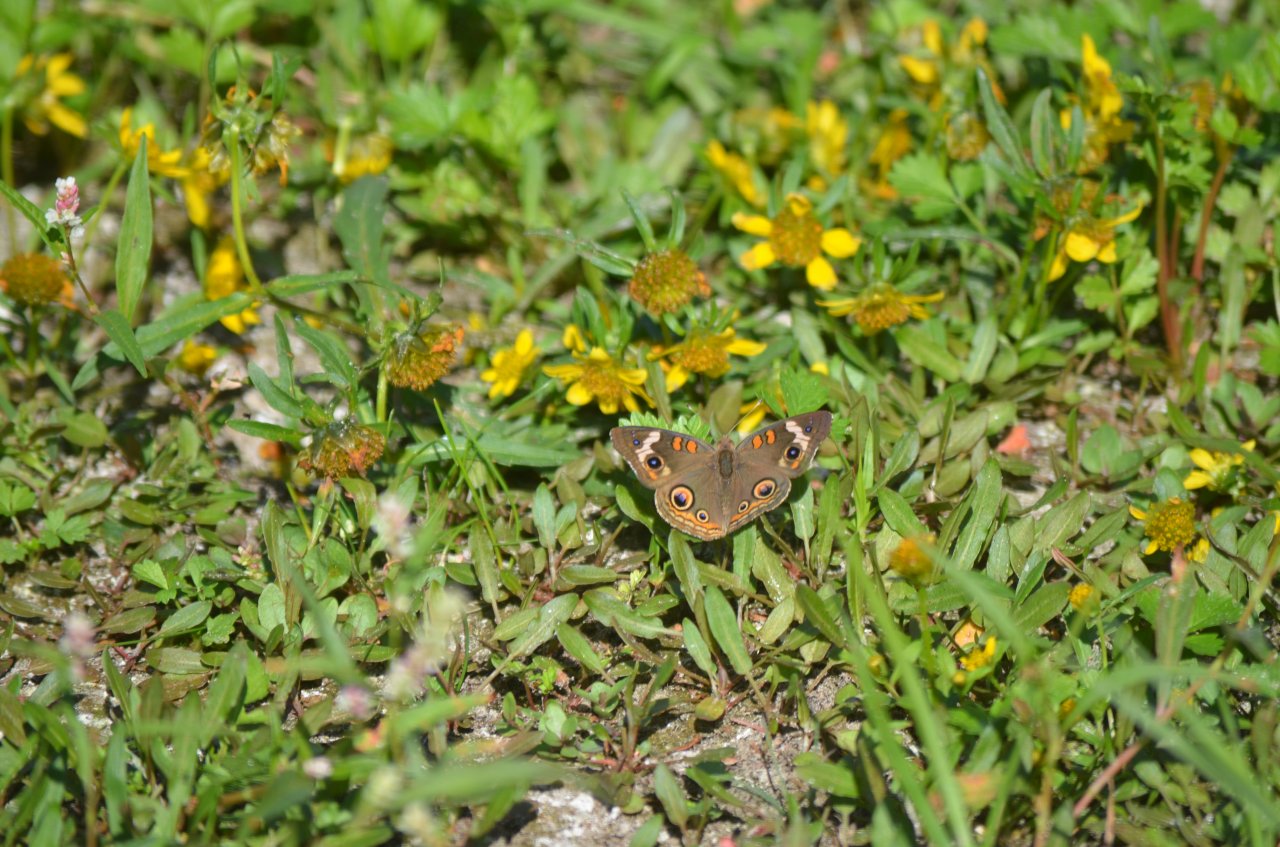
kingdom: Animalia
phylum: Arthropoda
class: Insecta
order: Lepidoptera
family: Nymphalidae
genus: Junonia
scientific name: Junonia coenia
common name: Common Buckeye
